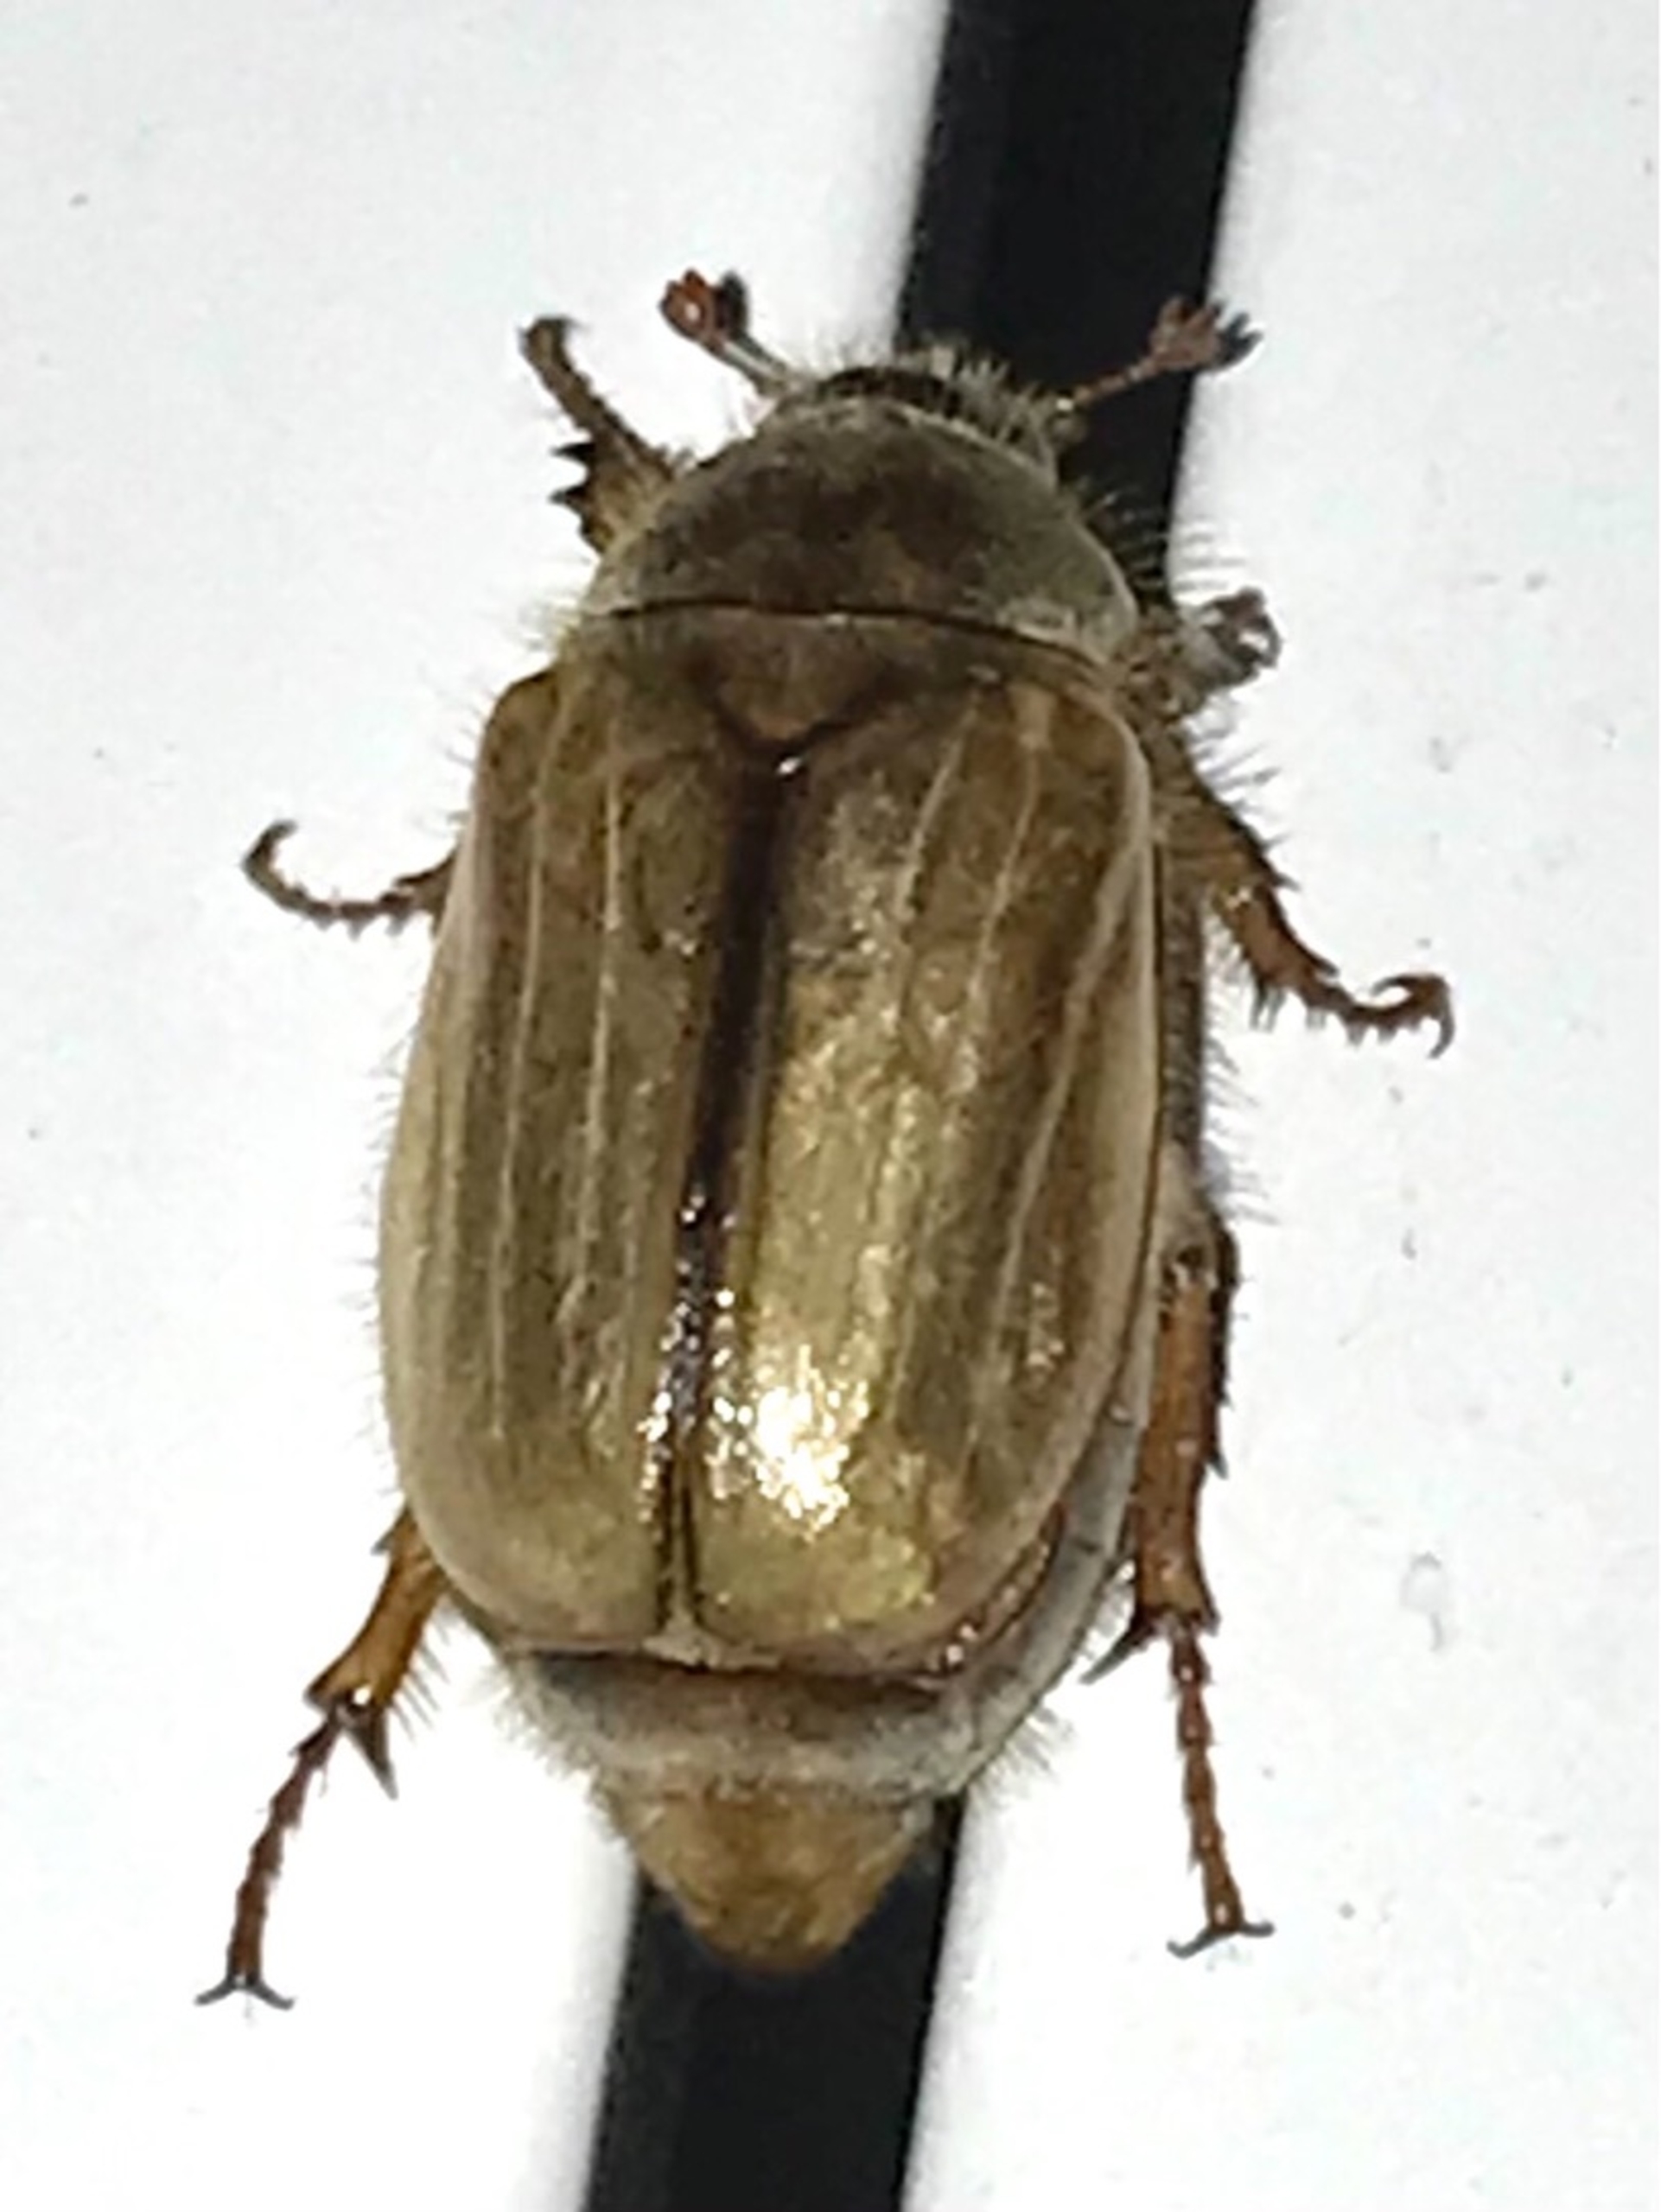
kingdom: Animalia
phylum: Arthropoda
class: Insecta
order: Coleoptera
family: Scarabaeidae
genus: Amphimallon
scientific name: Amphimallon solstitiale
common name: Sankthansoldenborre
